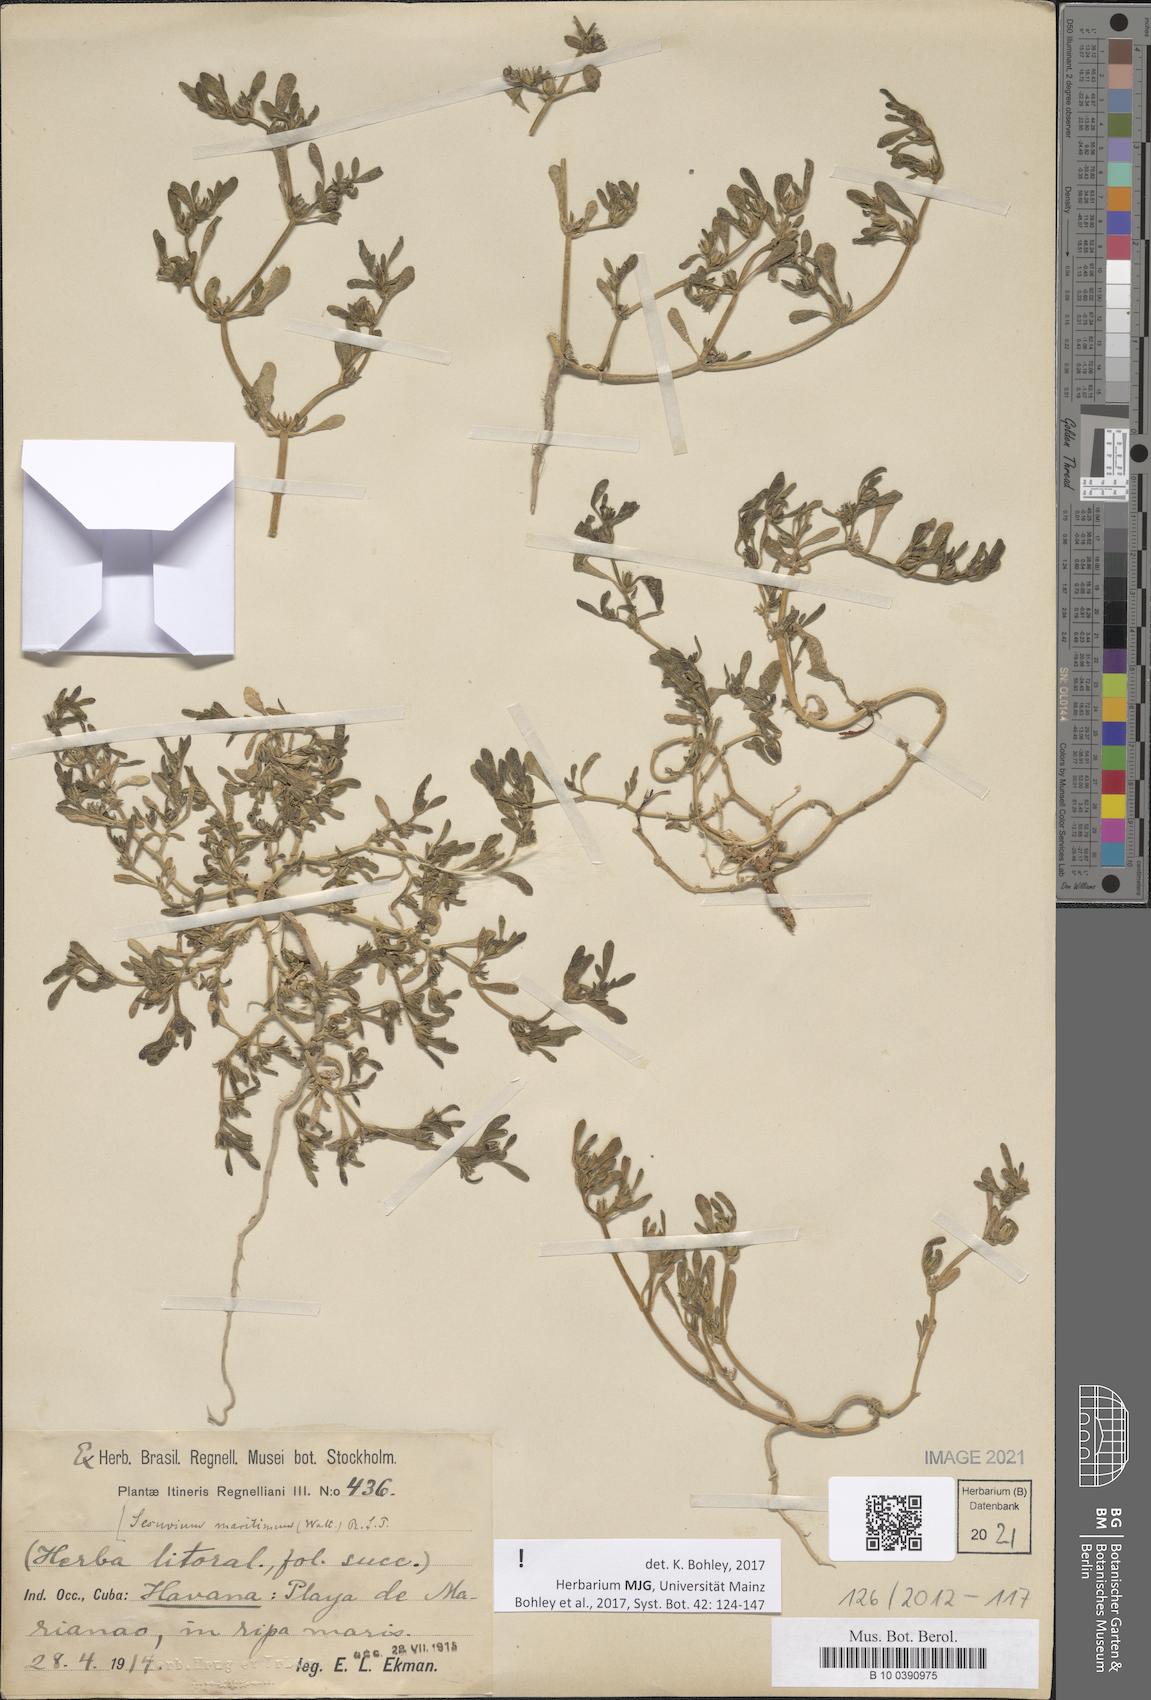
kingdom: Plantae
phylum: Tracheophyta
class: Magnoliopsida
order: Caryophyllales
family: Aizoaceae
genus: Sesuvium
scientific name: Sesuvium maritimum
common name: Slender sea-purslane
